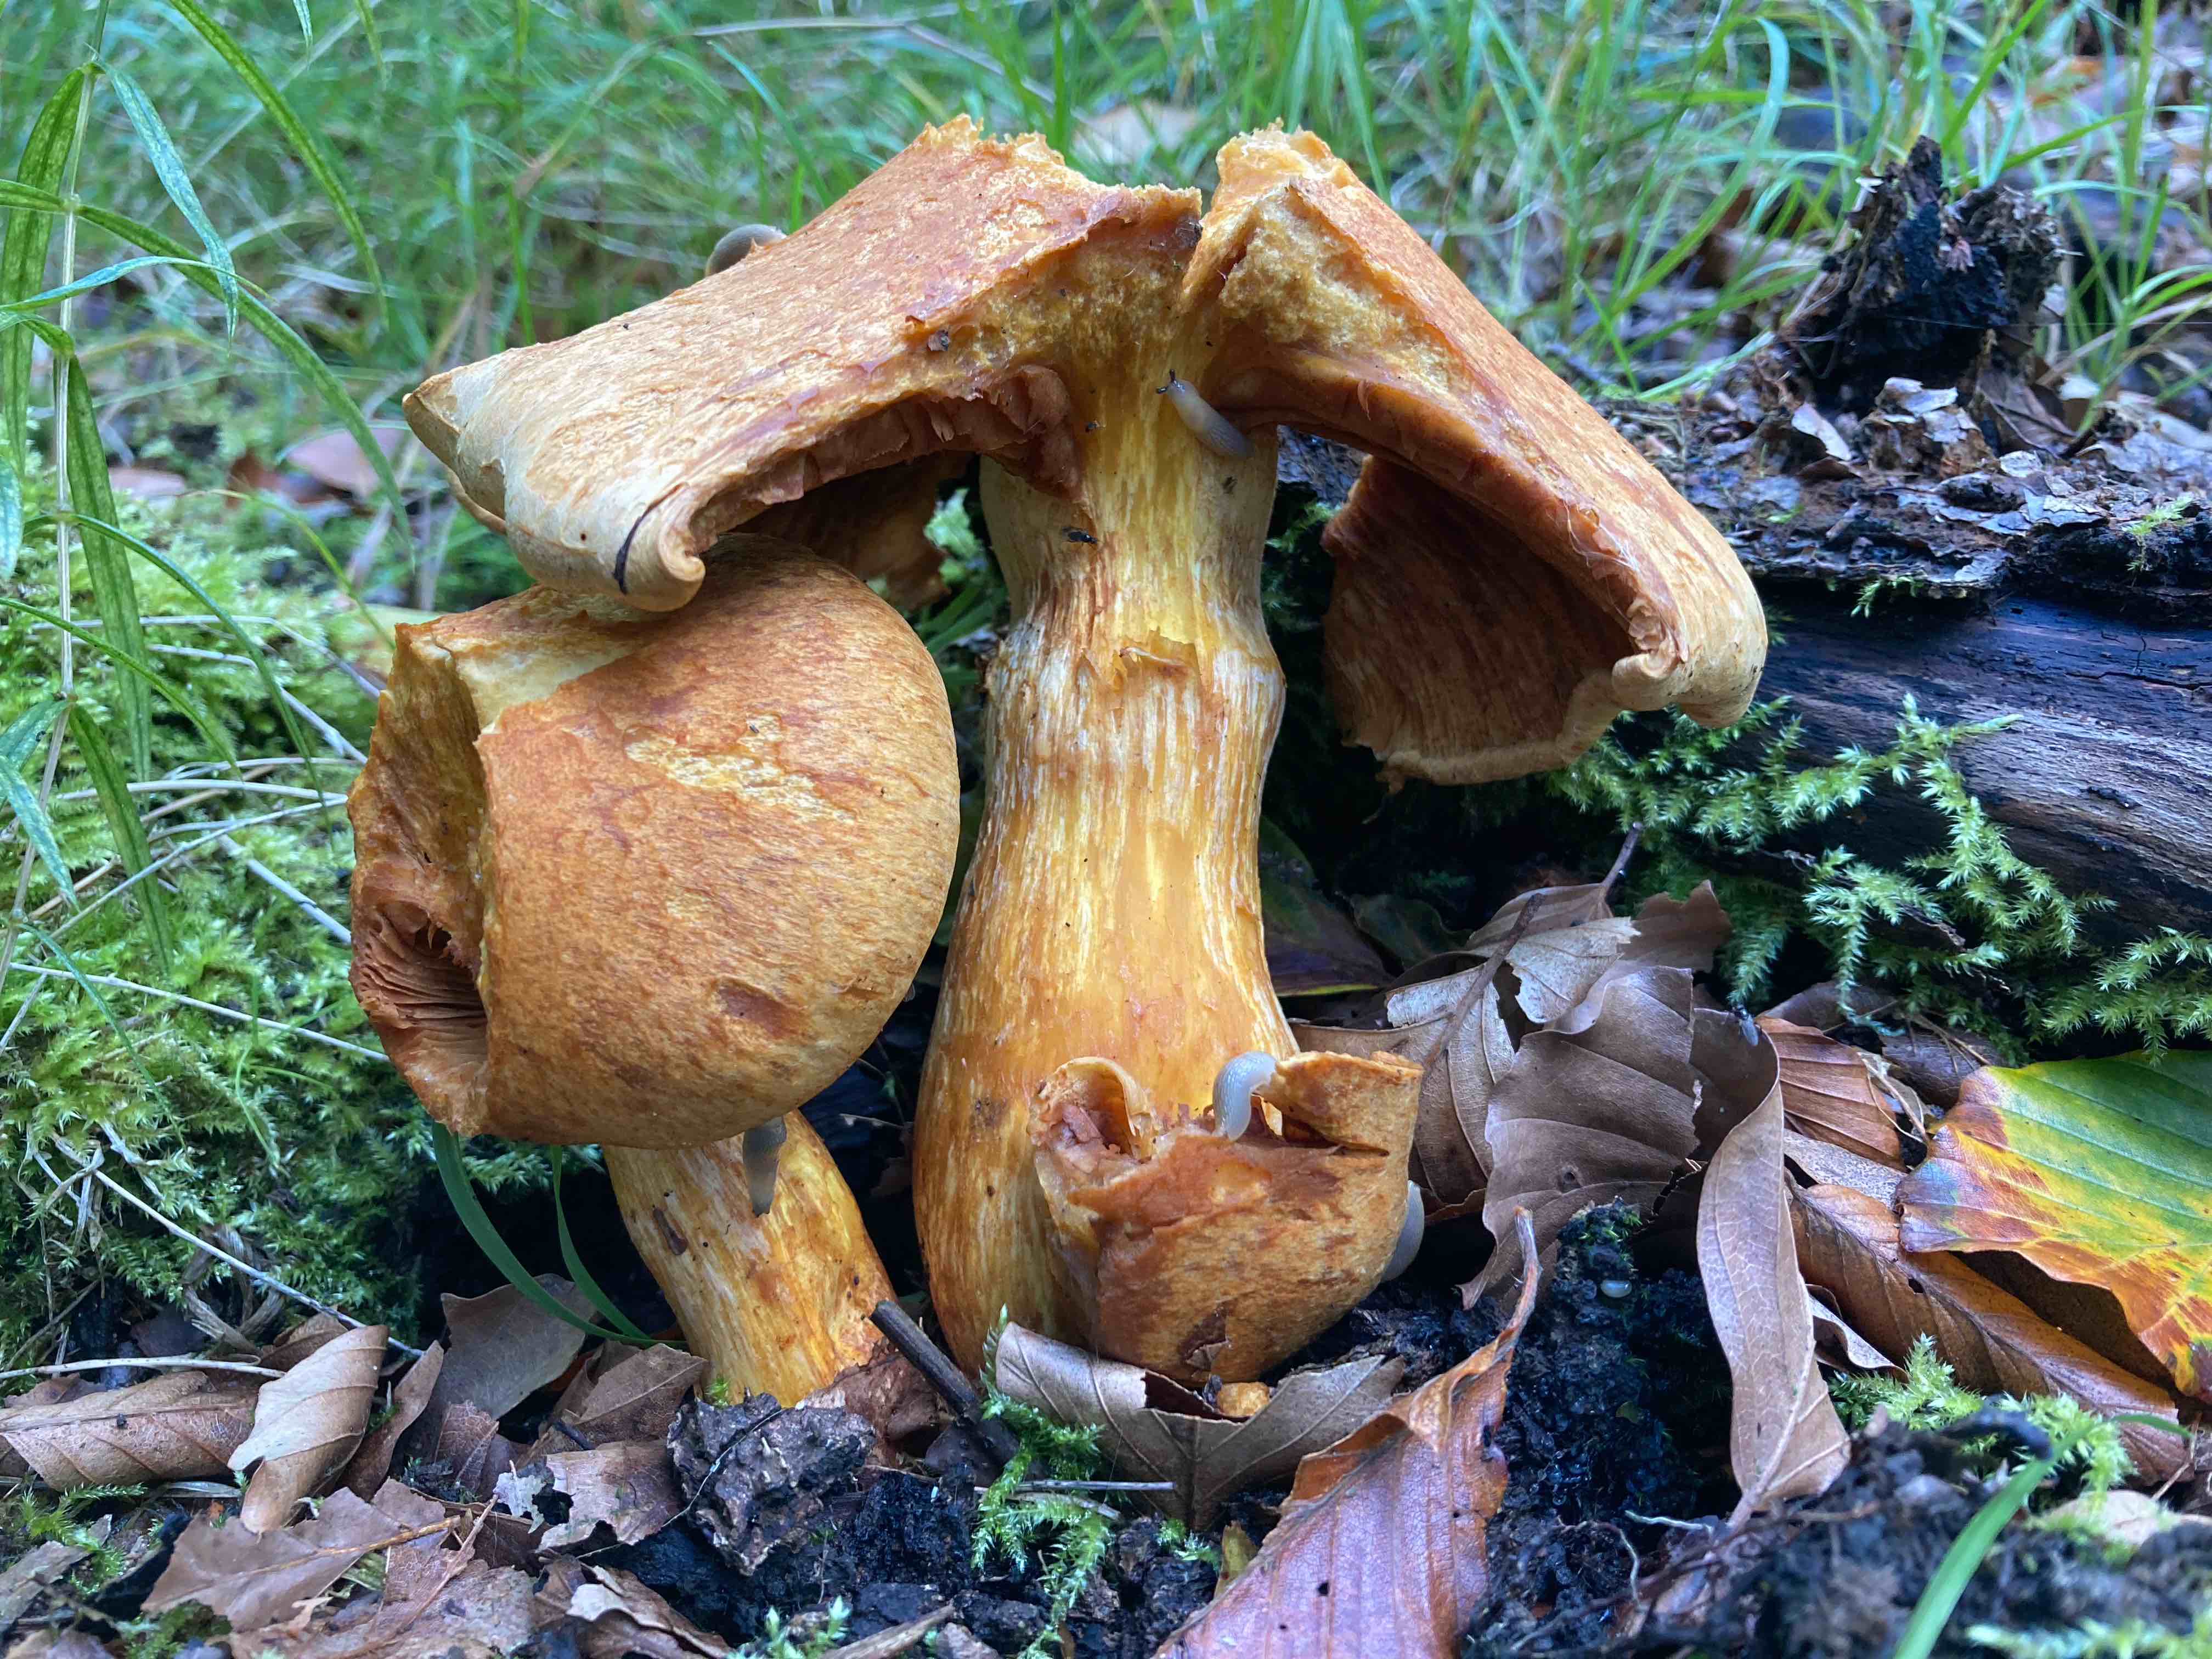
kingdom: Fungi
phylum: Basidiomycota
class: Agaricomycetes
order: Agaricales
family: Hymenogastraceae
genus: Gymnopilus
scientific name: Gymnopilus spectabilis
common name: fibret flammehat
